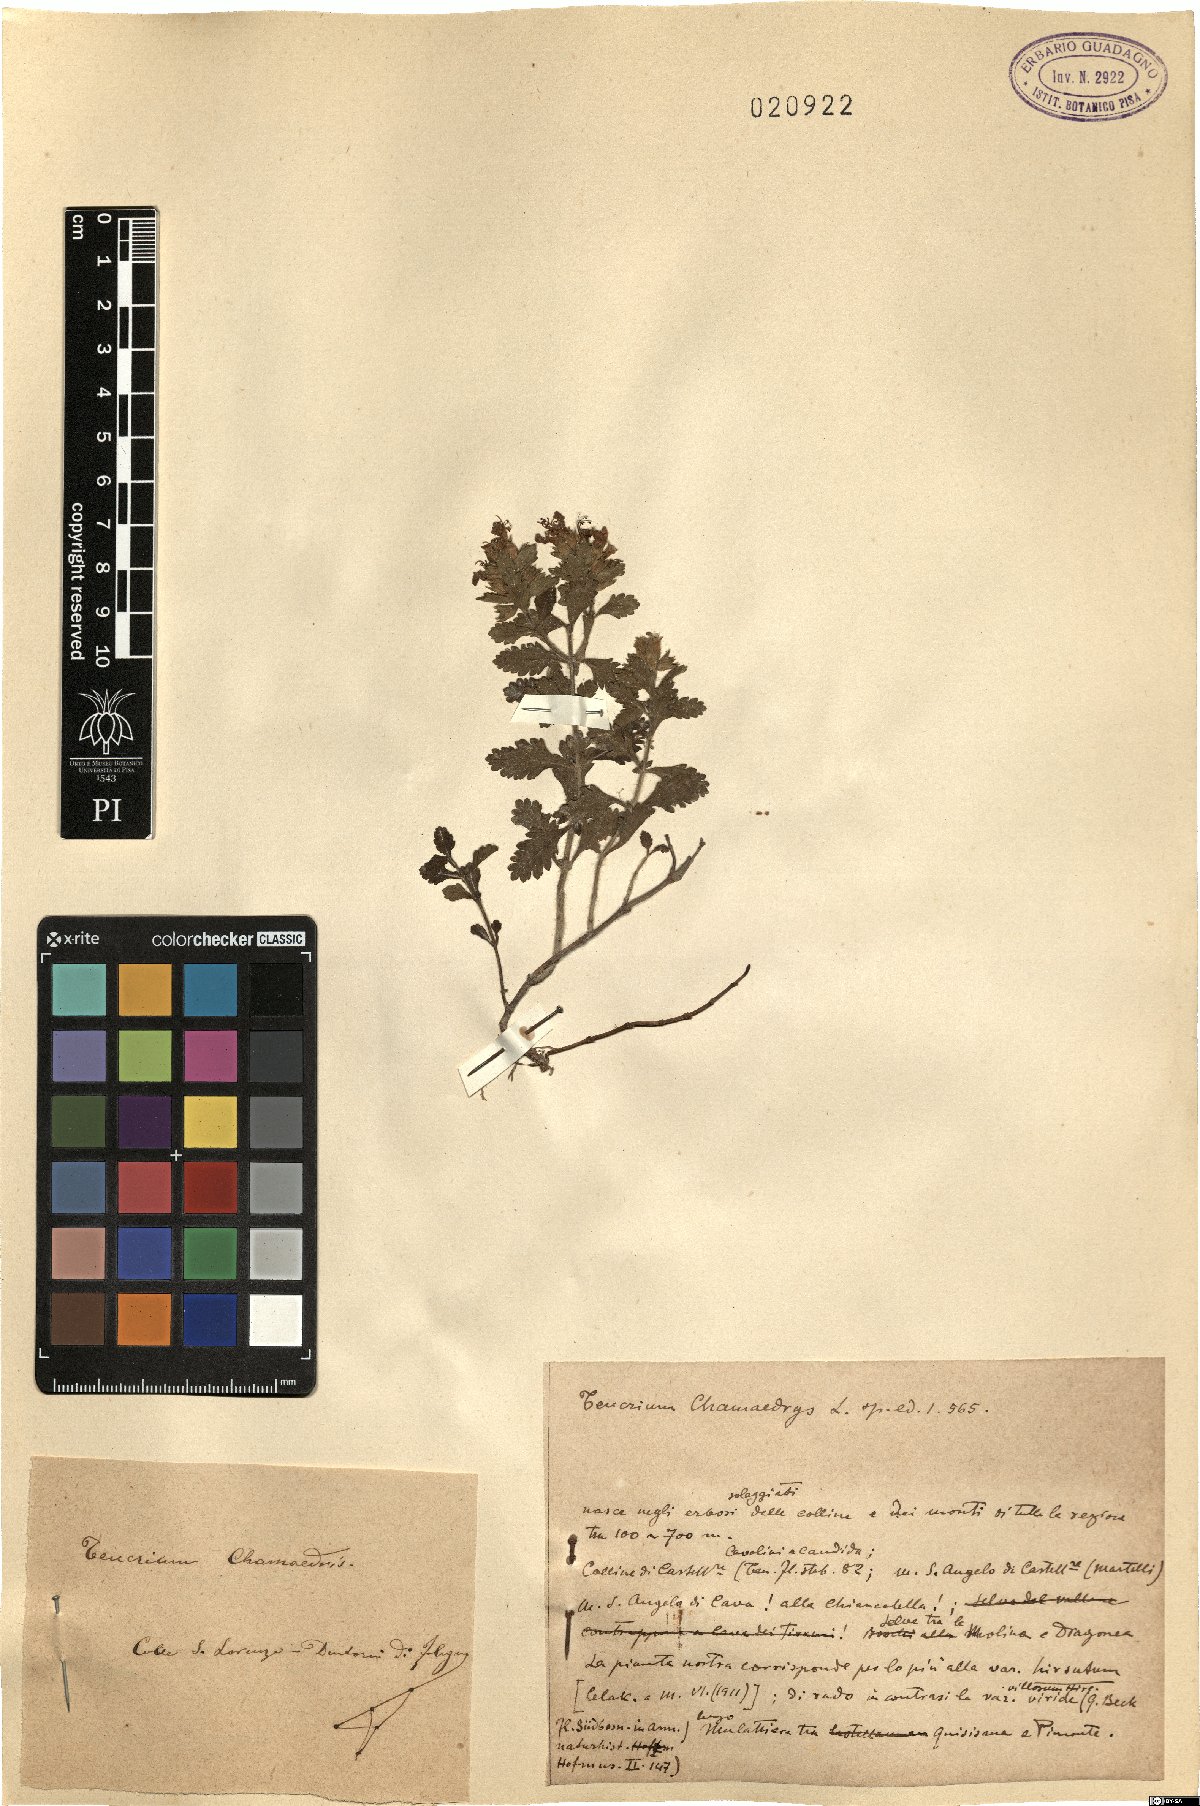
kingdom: Plantae
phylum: Tracheophyta
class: Magnoliopsida
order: Lamiales
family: Lamiaceae
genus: Teucrium
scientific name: Teucrium chamaedrys
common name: Wall germander
